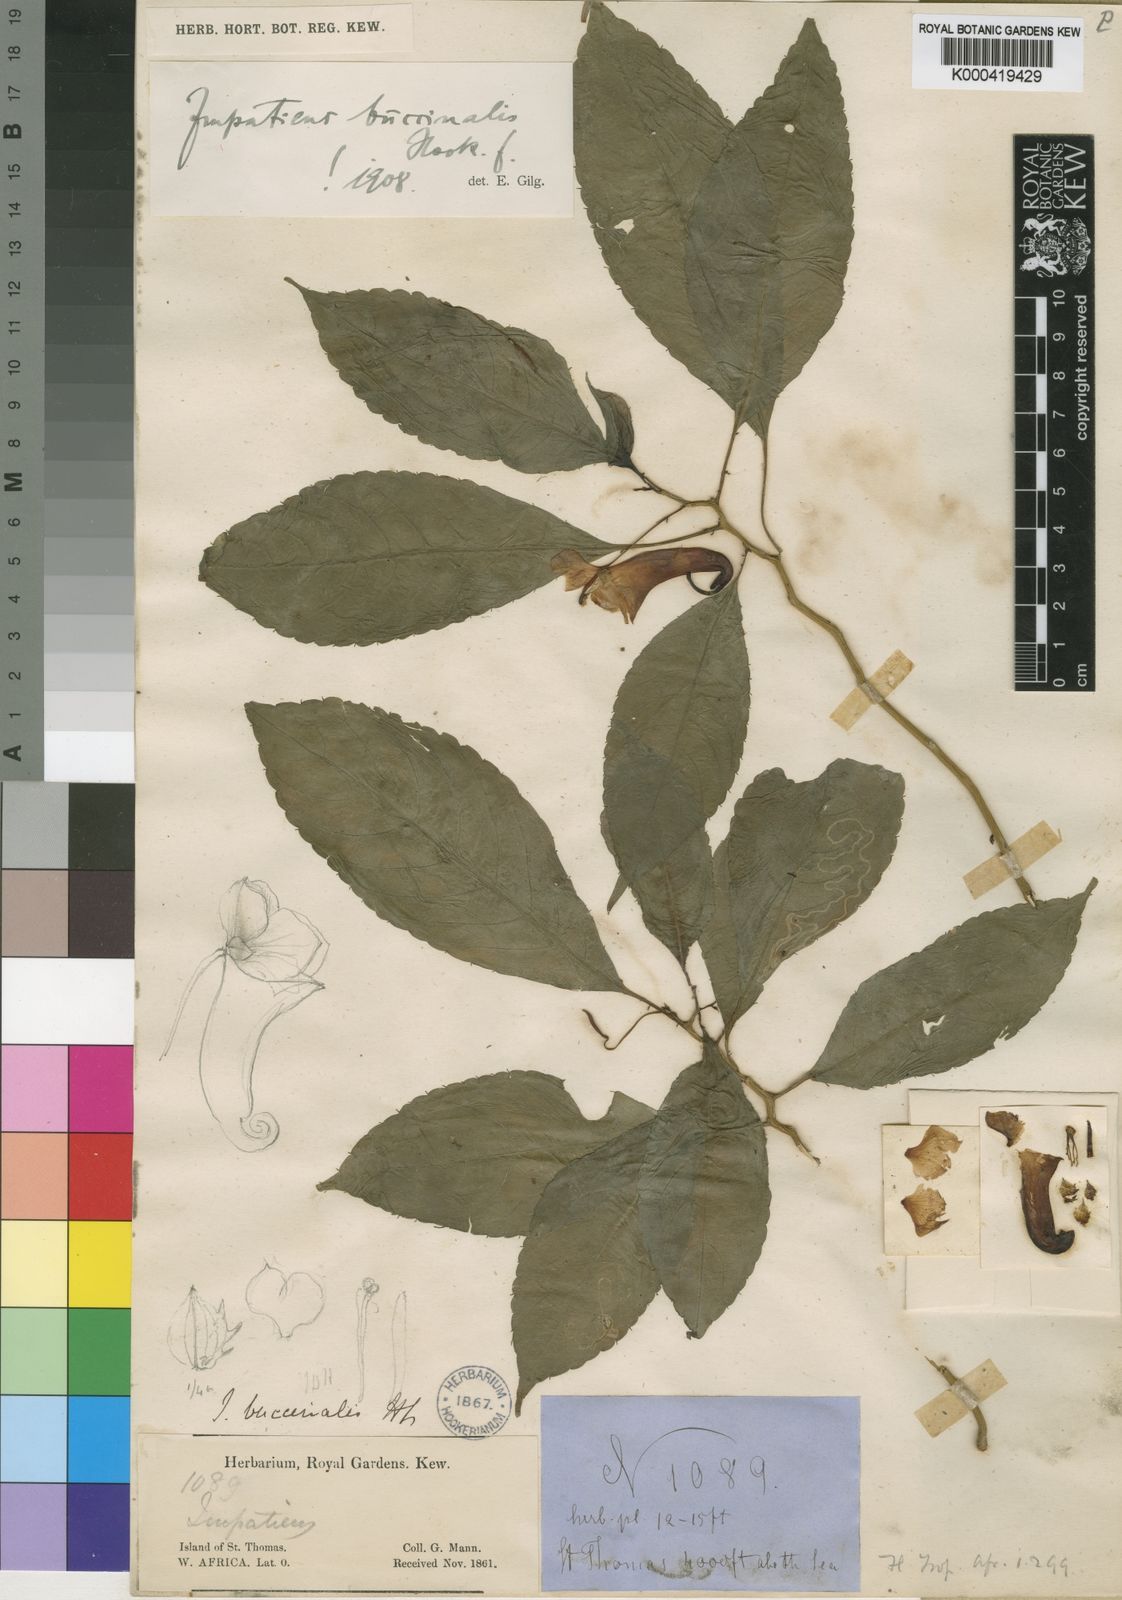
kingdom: Plantae
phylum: Tracheophyta
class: Magnoliopsida
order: Ericales
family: Balsaminaceae
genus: Impatiens
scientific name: Impatiens buccinalis
